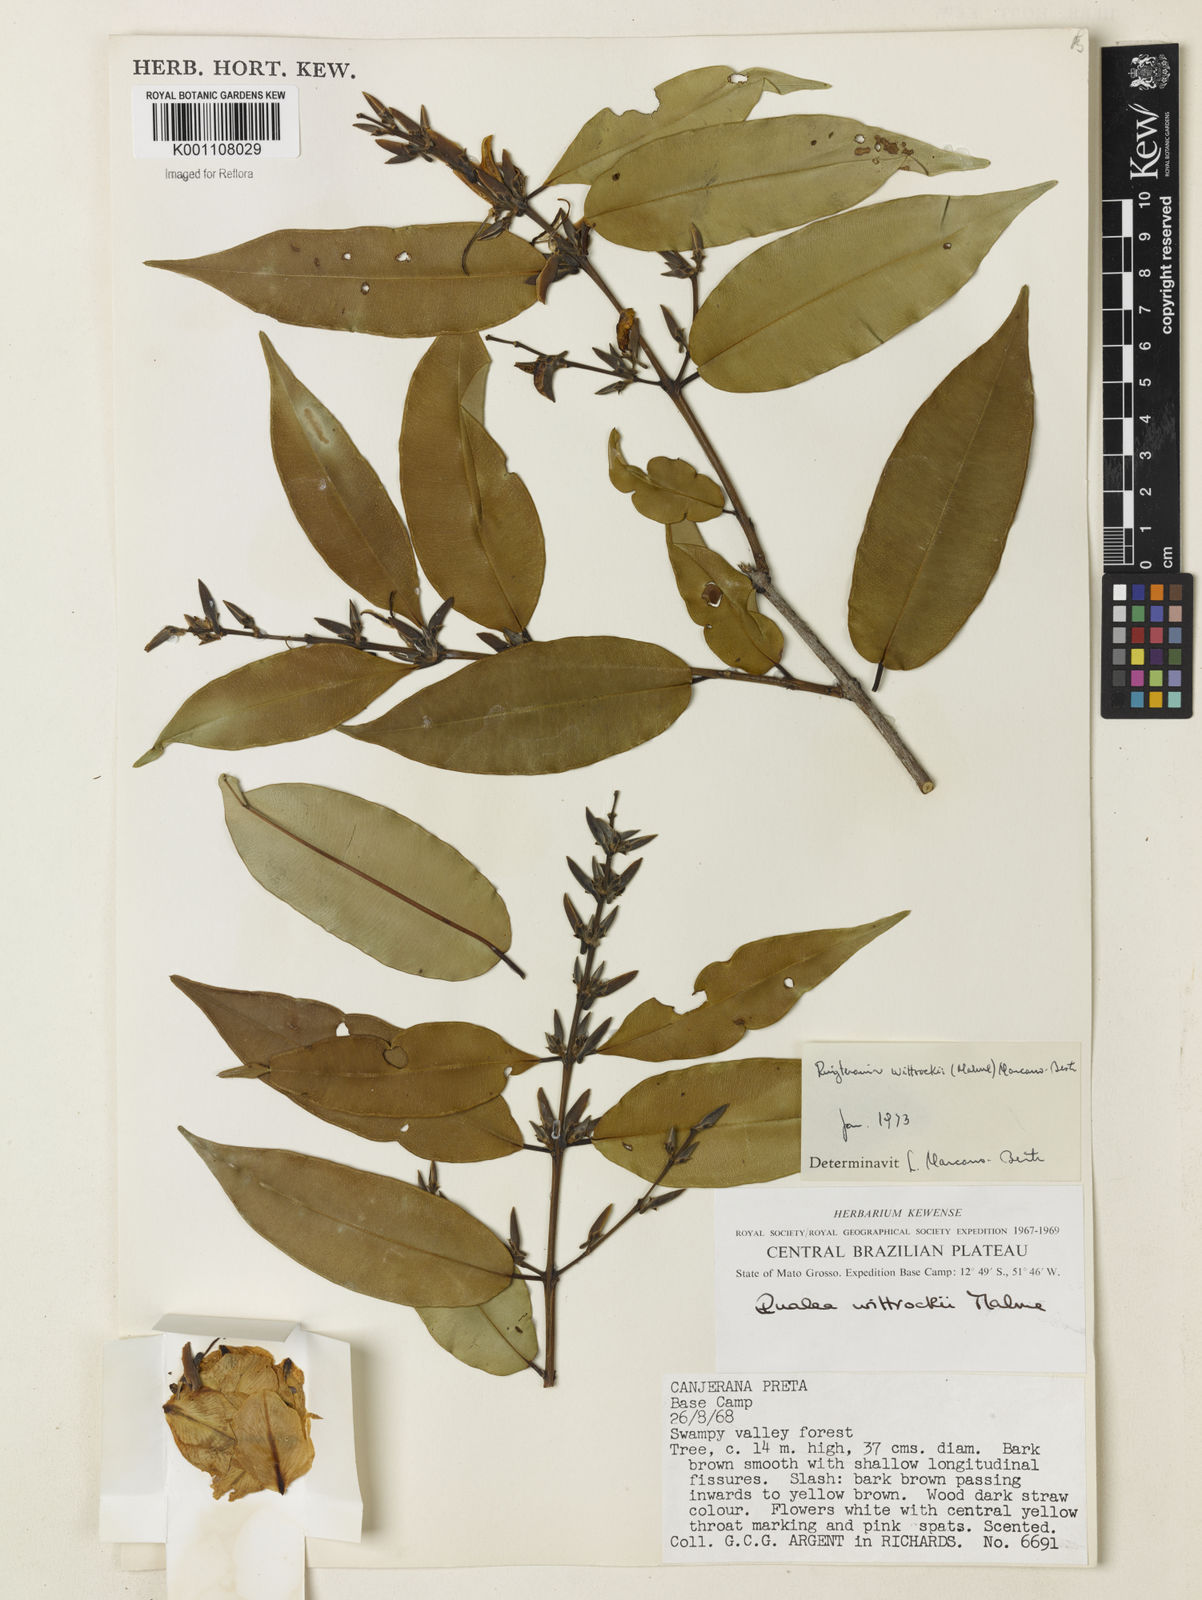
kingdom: Plantae
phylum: Tracheophyta
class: Magnoliopsida
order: Myrtales
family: Vochysiaceae
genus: Ruizterania
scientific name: Ruizterania wittrockii
